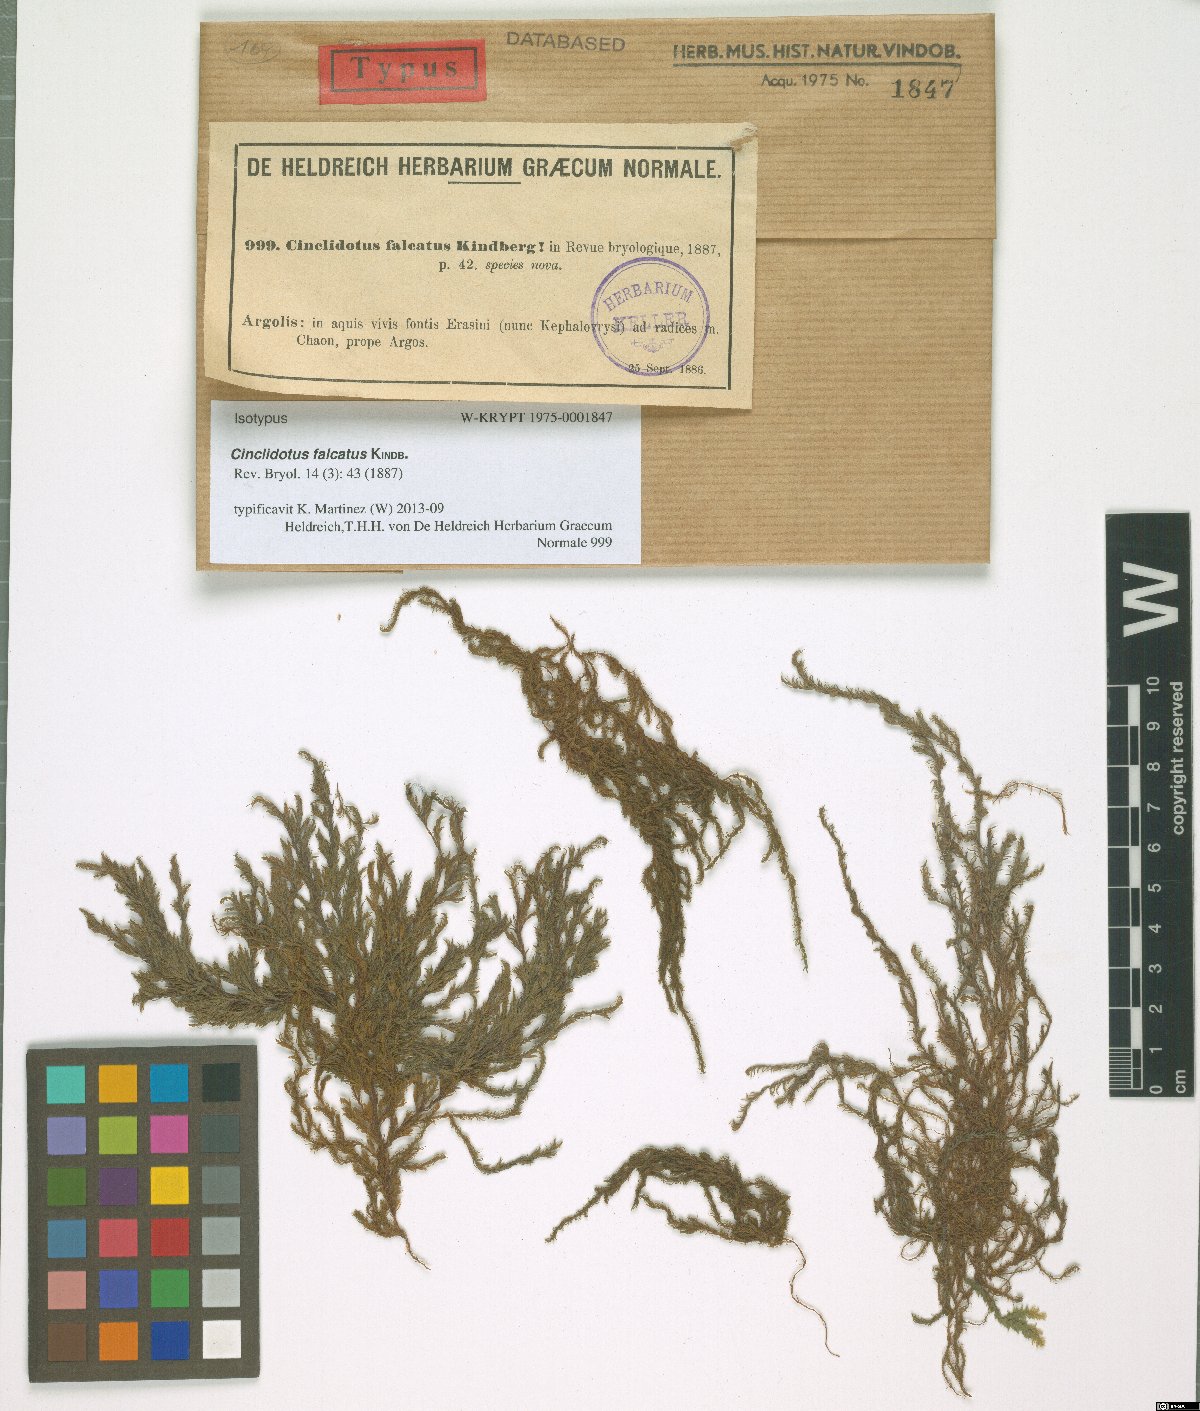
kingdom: Plantae
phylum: Bryophyta
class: Bryopsida
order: Pottiales
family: Pottiaceae
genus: Cinclidotus
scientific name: Cinclidotus aquaticus
